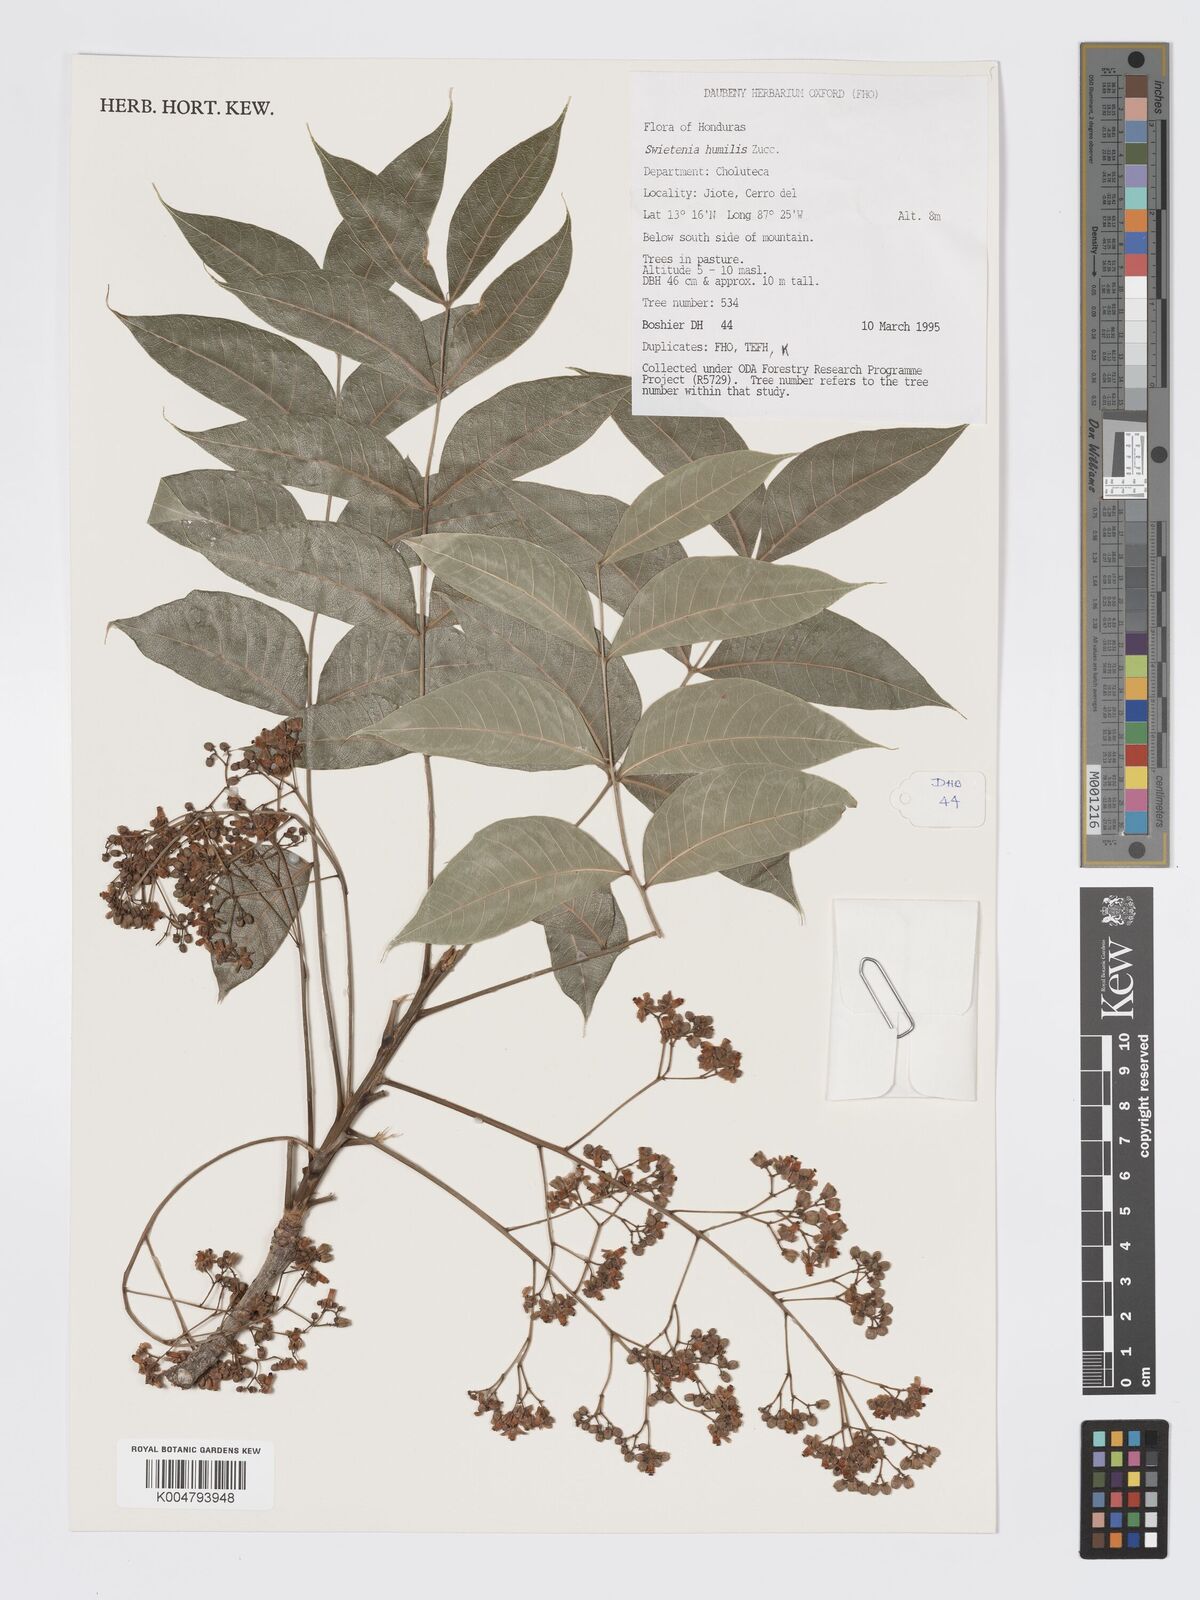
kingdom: Plantae
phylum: Tracheophyta
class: Magnoliopsida
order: Sapindales
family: Meliaceae
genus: Swietenia
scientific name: Swietenia humilis
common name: Pacific coast mahogany
